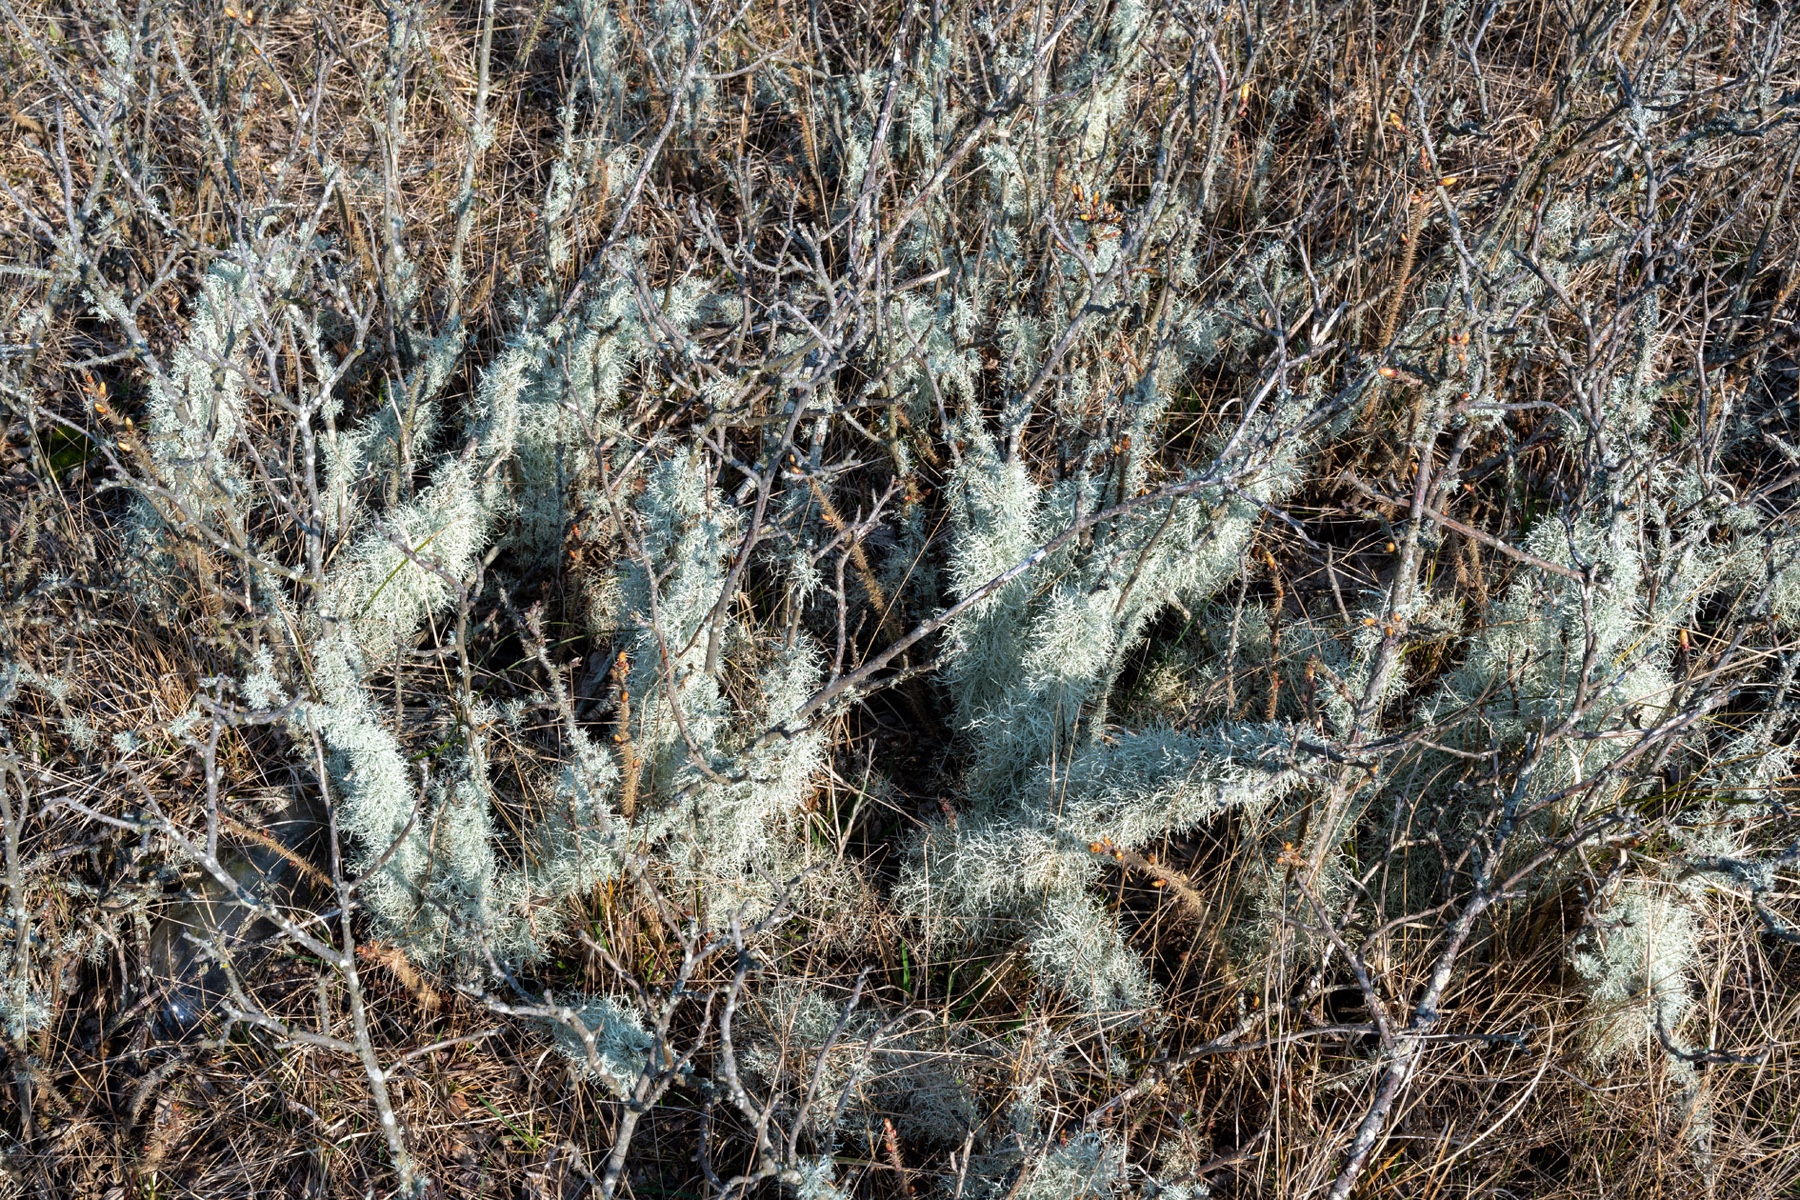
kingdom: Fungi
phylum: Ascomycota
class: Lecanoromycetes
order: Lecanorales
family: Ramalinaceae
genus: Ramalina
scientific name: Ramalina farinacea
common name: melet grenlav
